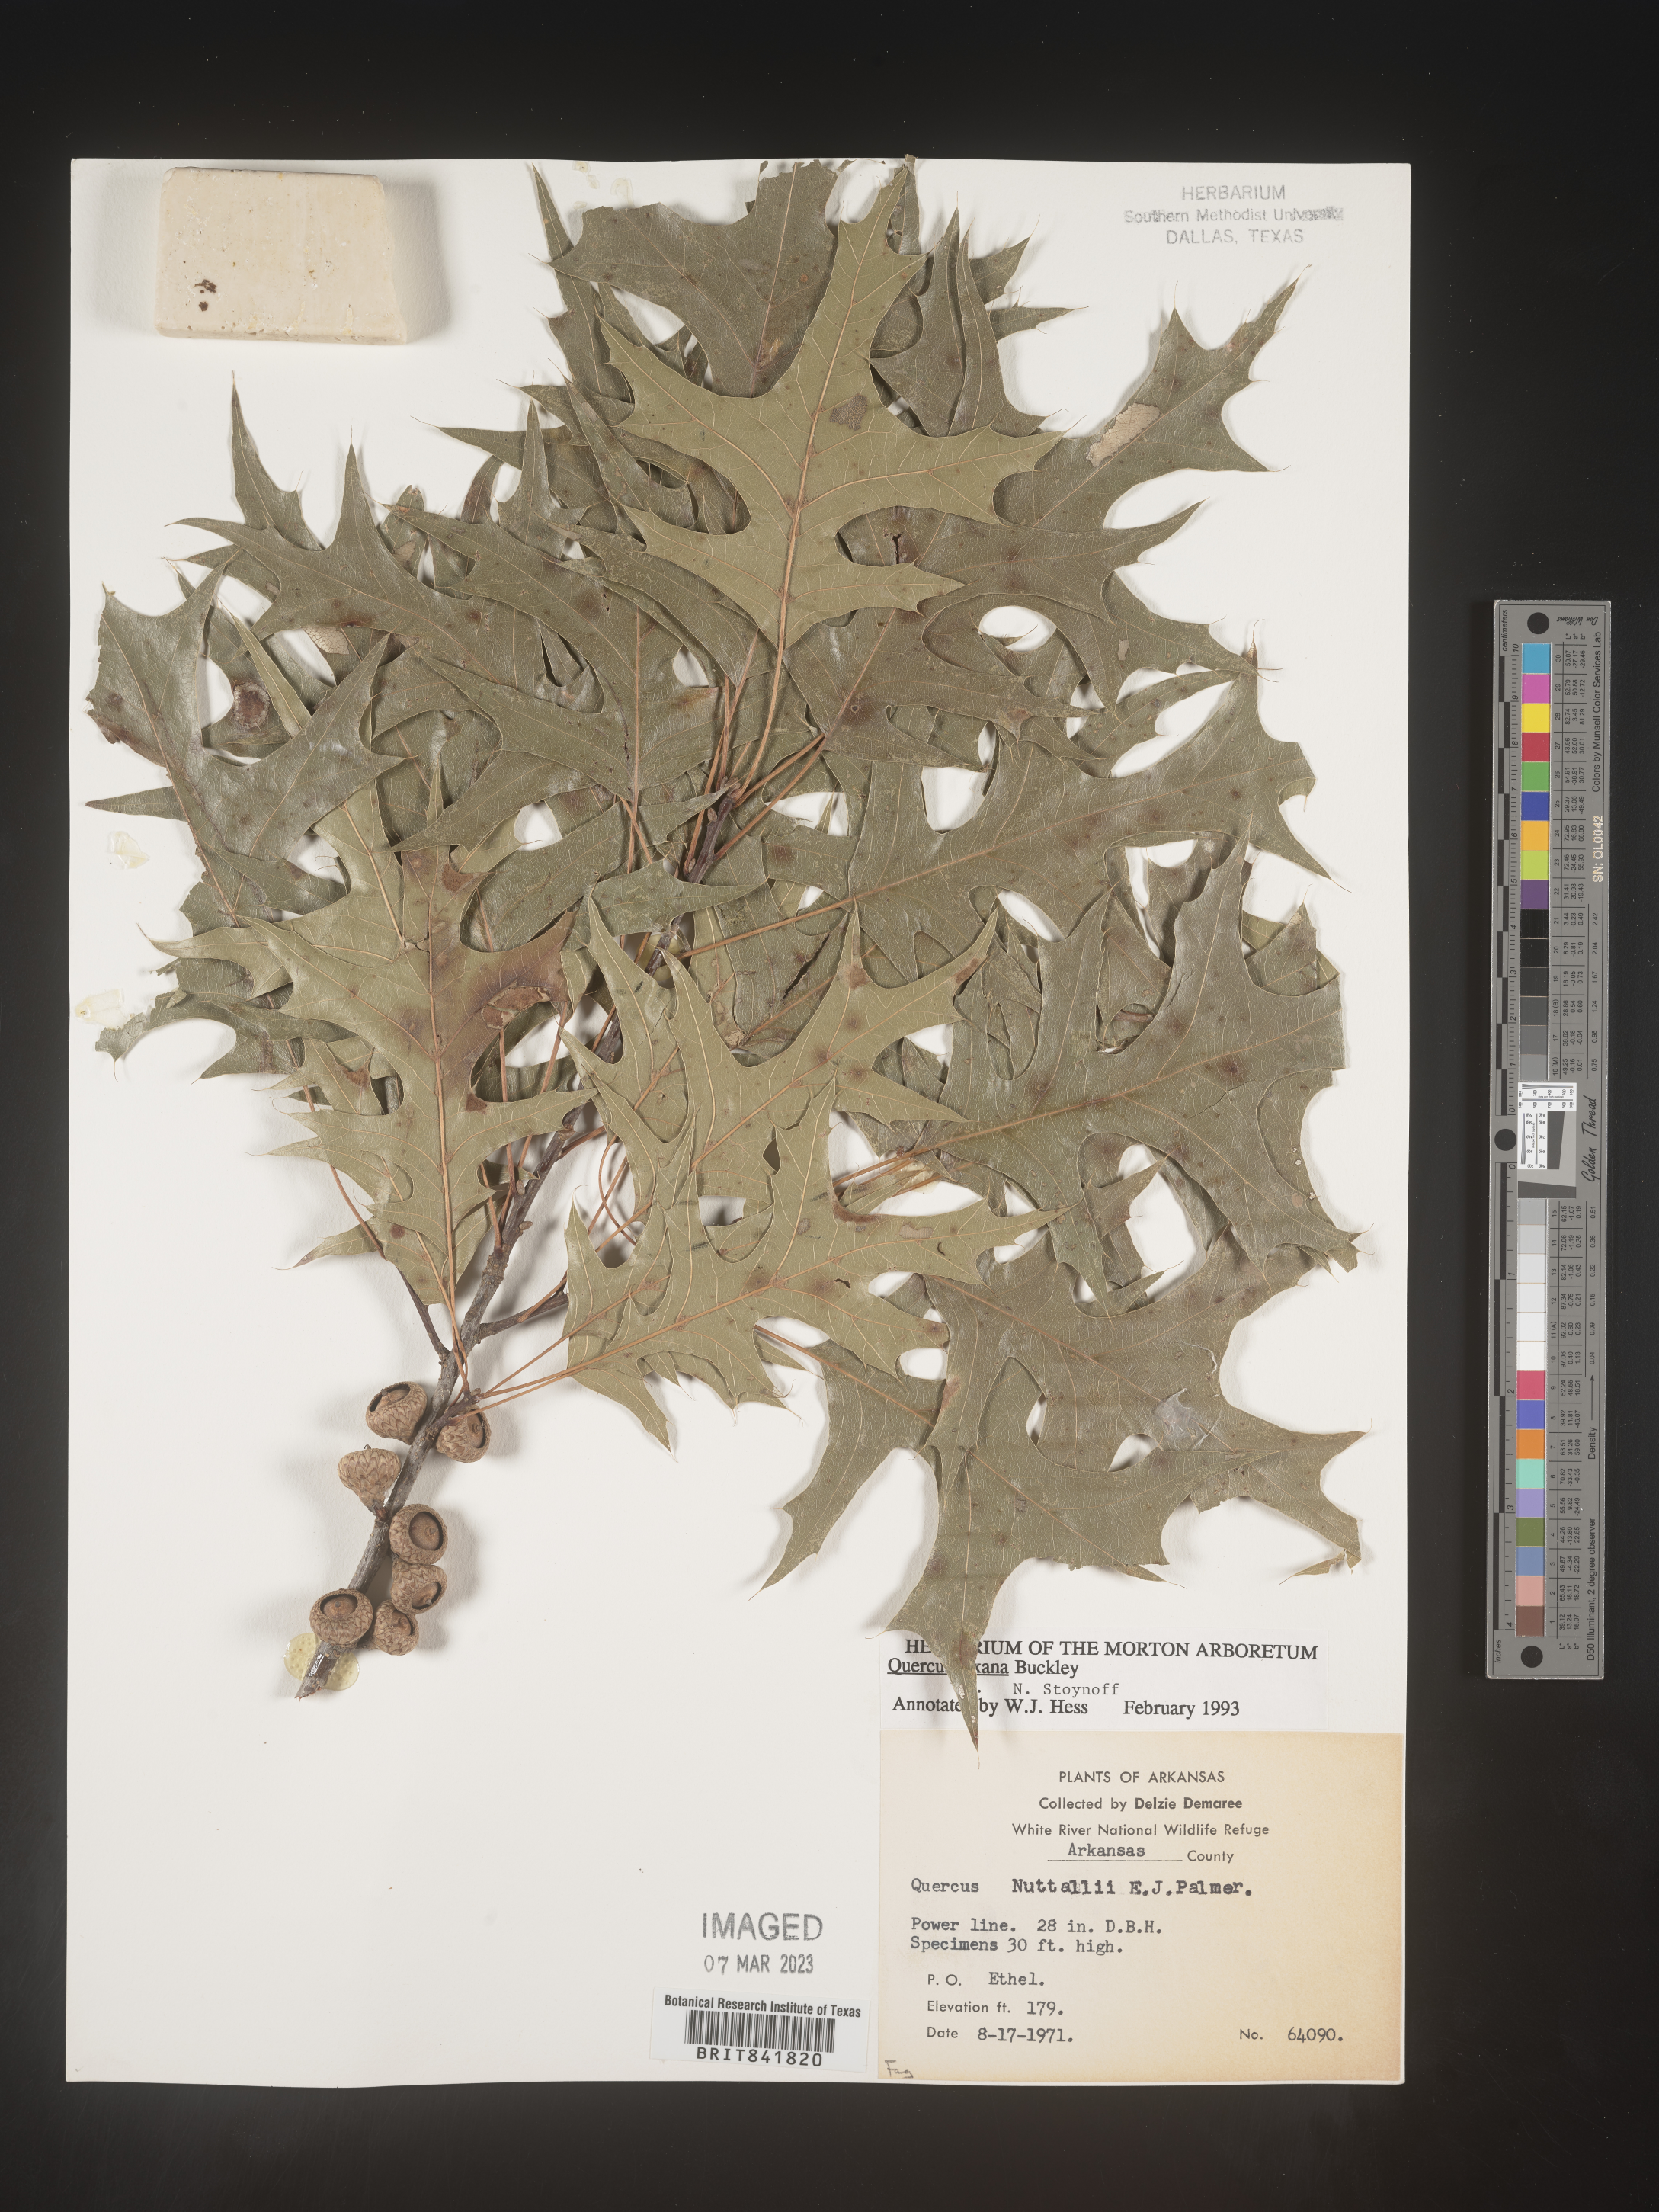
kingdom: Plantae
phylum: Tracheophyta
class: Magnoliopsida
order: Fagales
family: Fagaceae
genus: Quercus
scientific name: Quercus texana
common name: Nuttall oak
